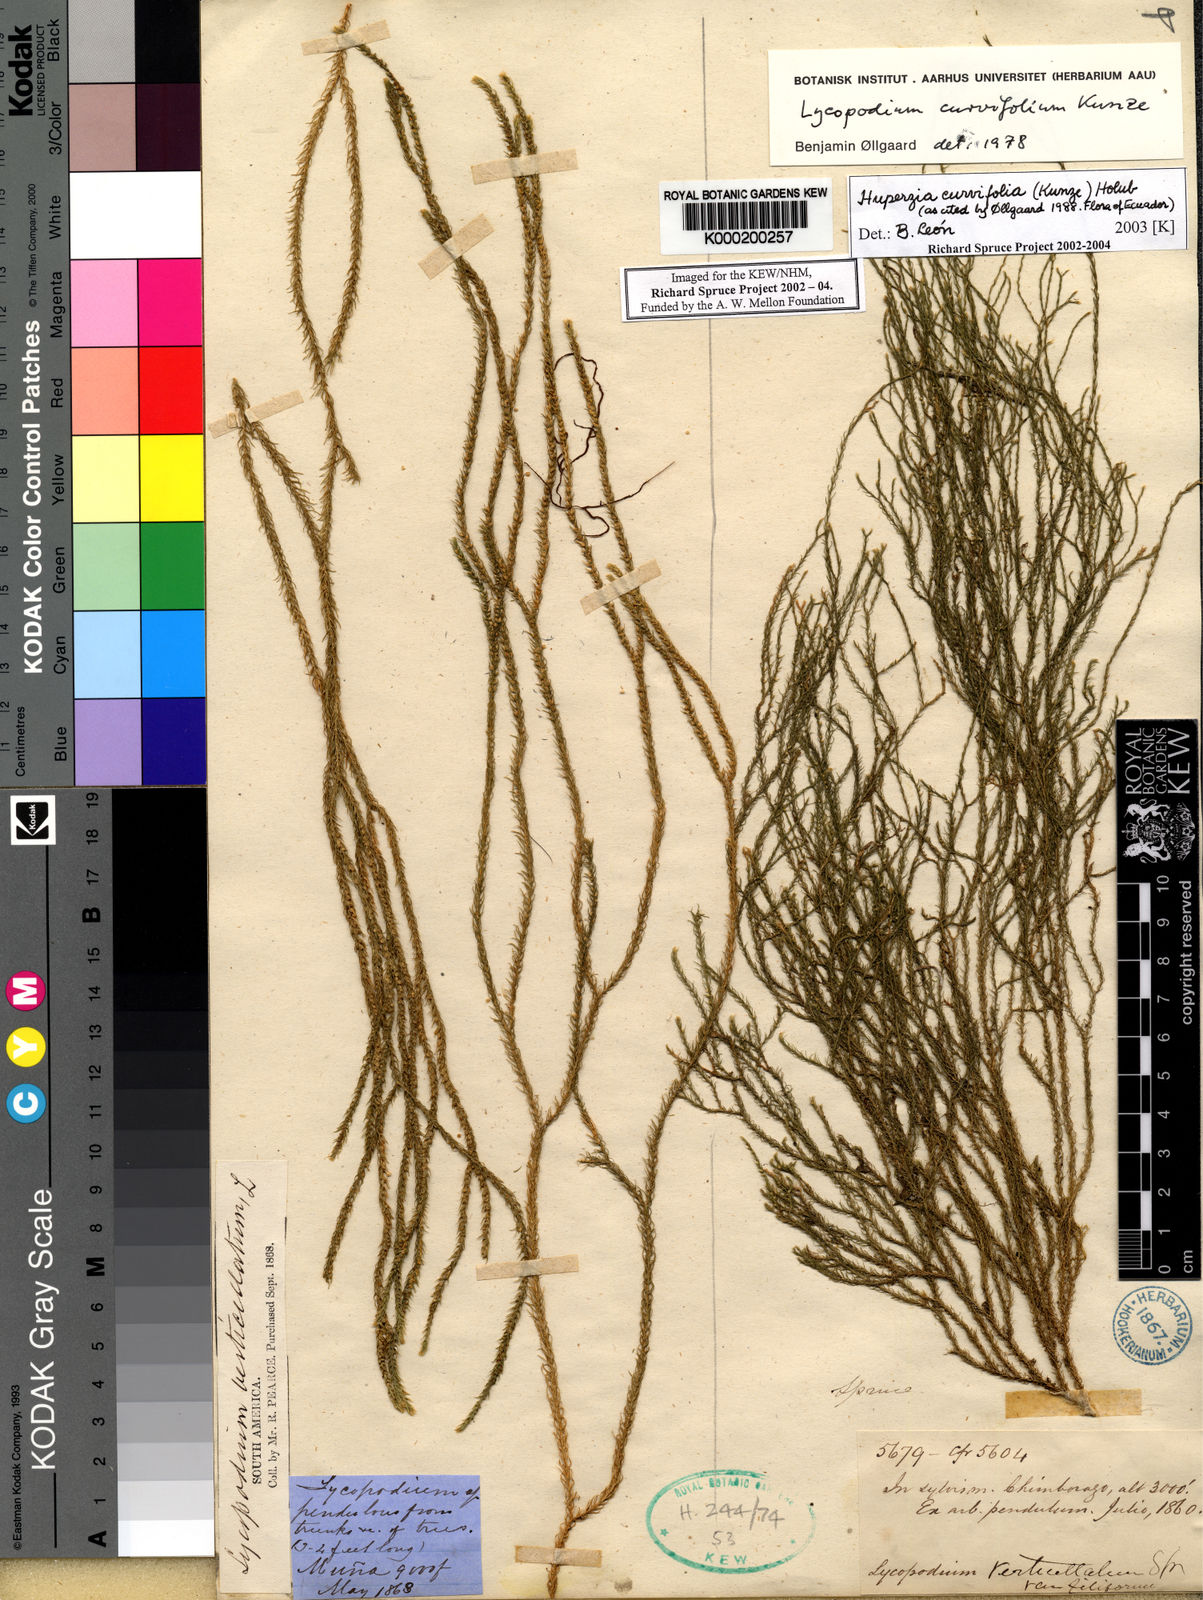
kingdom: Plantae
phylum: Tracheophyta
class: Lycopodiopsida
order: Lycopodiales
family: Lycopodiaceae
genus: Phlegmariurus
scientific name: Phlegmariurus curvifolius
